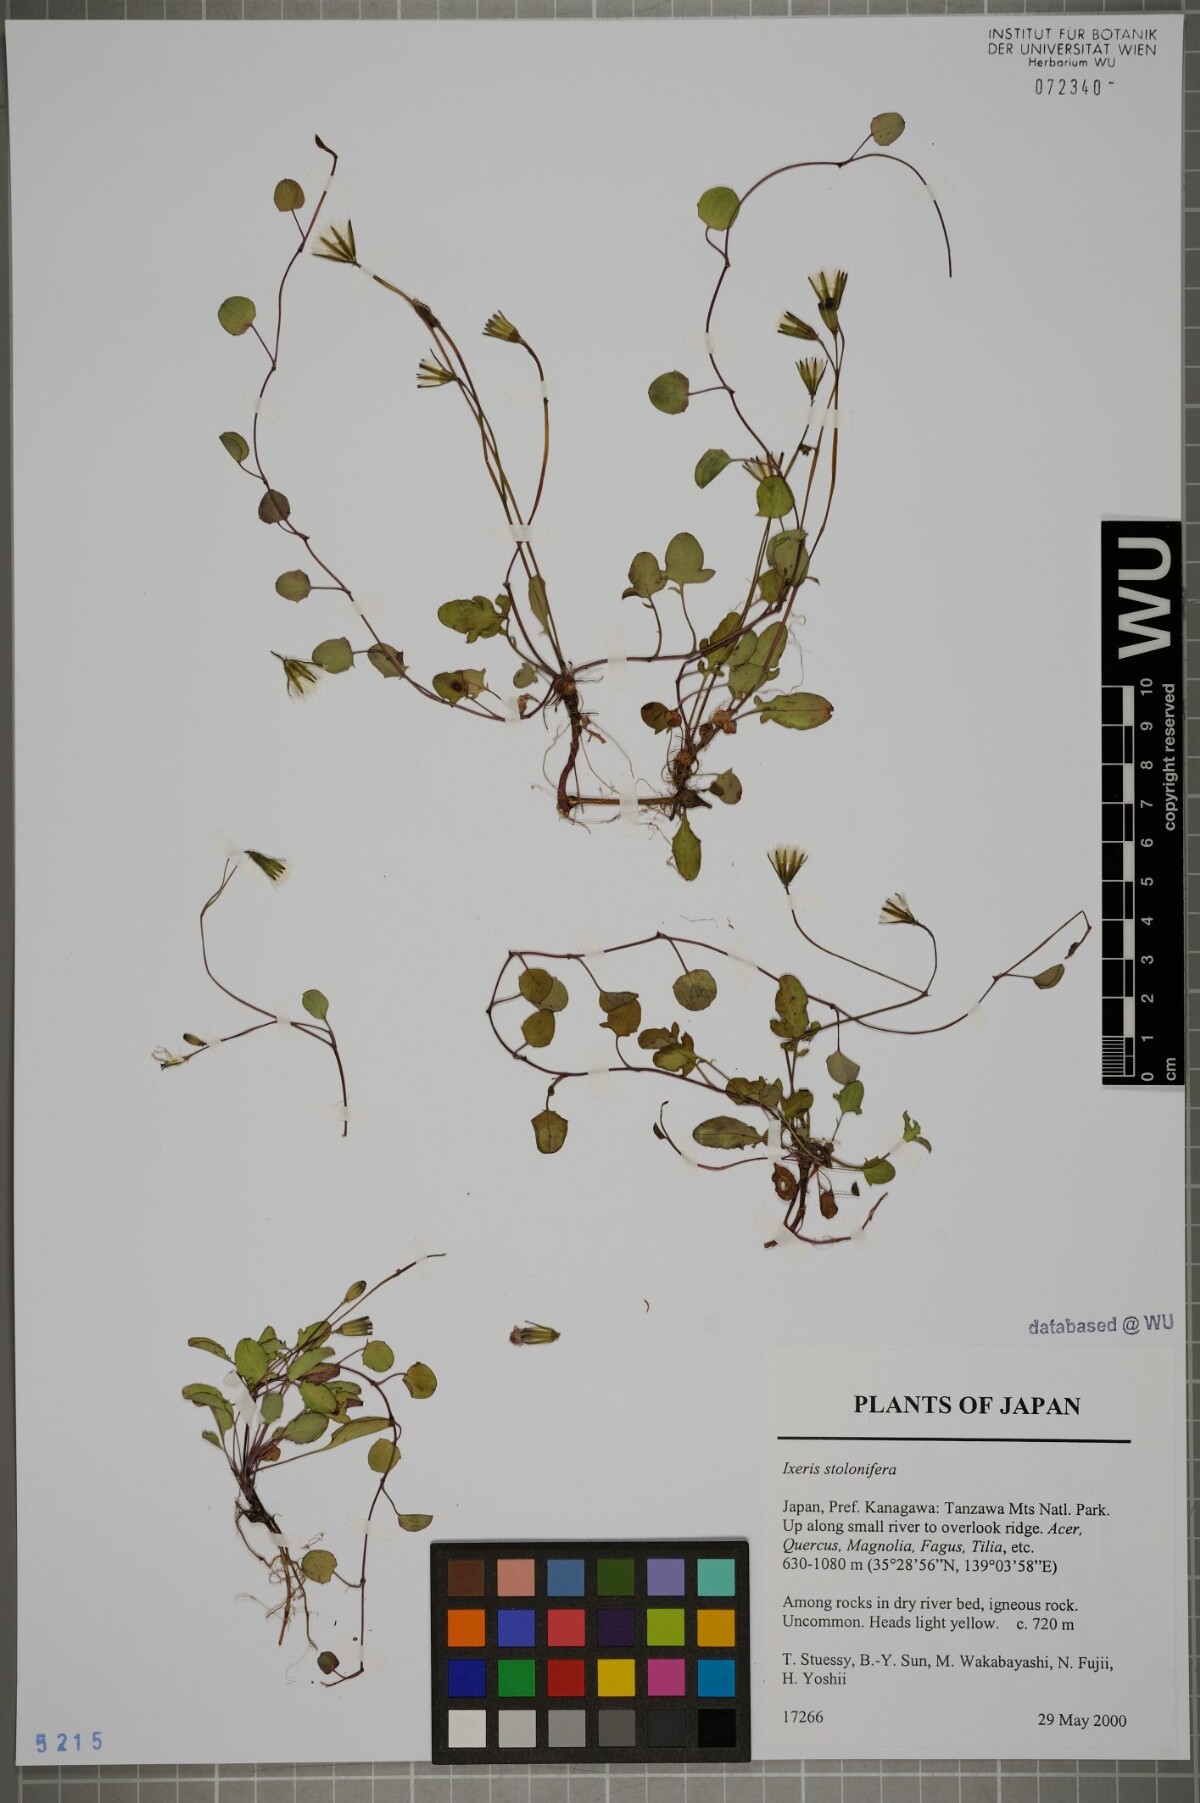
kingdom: Plantae
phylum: Tracheophyta
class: Magnoliopsida
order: Asterales
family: Asteraceae
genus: Ixeris
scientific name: Ixeris stolonifera
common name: Creeping lettuce
